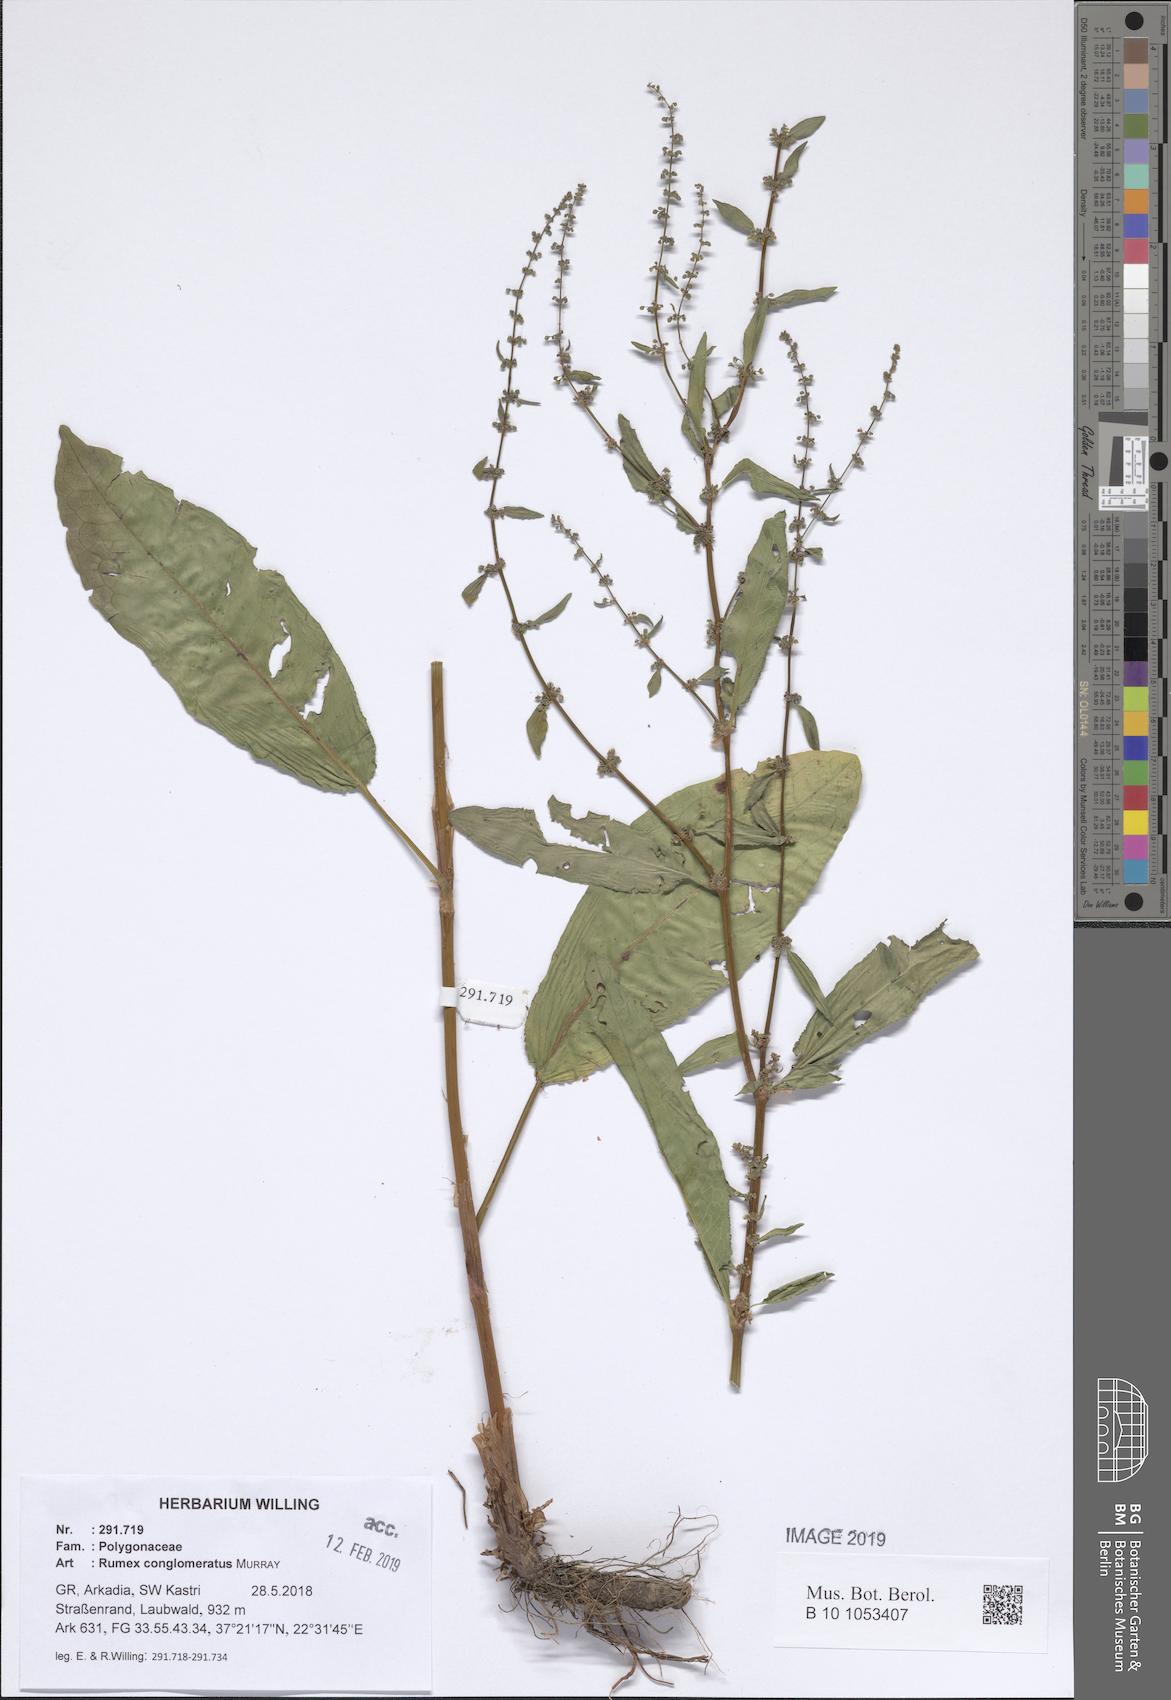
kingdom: Plantae
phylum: Tracheophyta
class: Magnoliopsida
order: Caryophyllales
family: Polygonaceae
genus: Rumex
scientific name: Rumex conglomeratus
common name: Clustered dock
